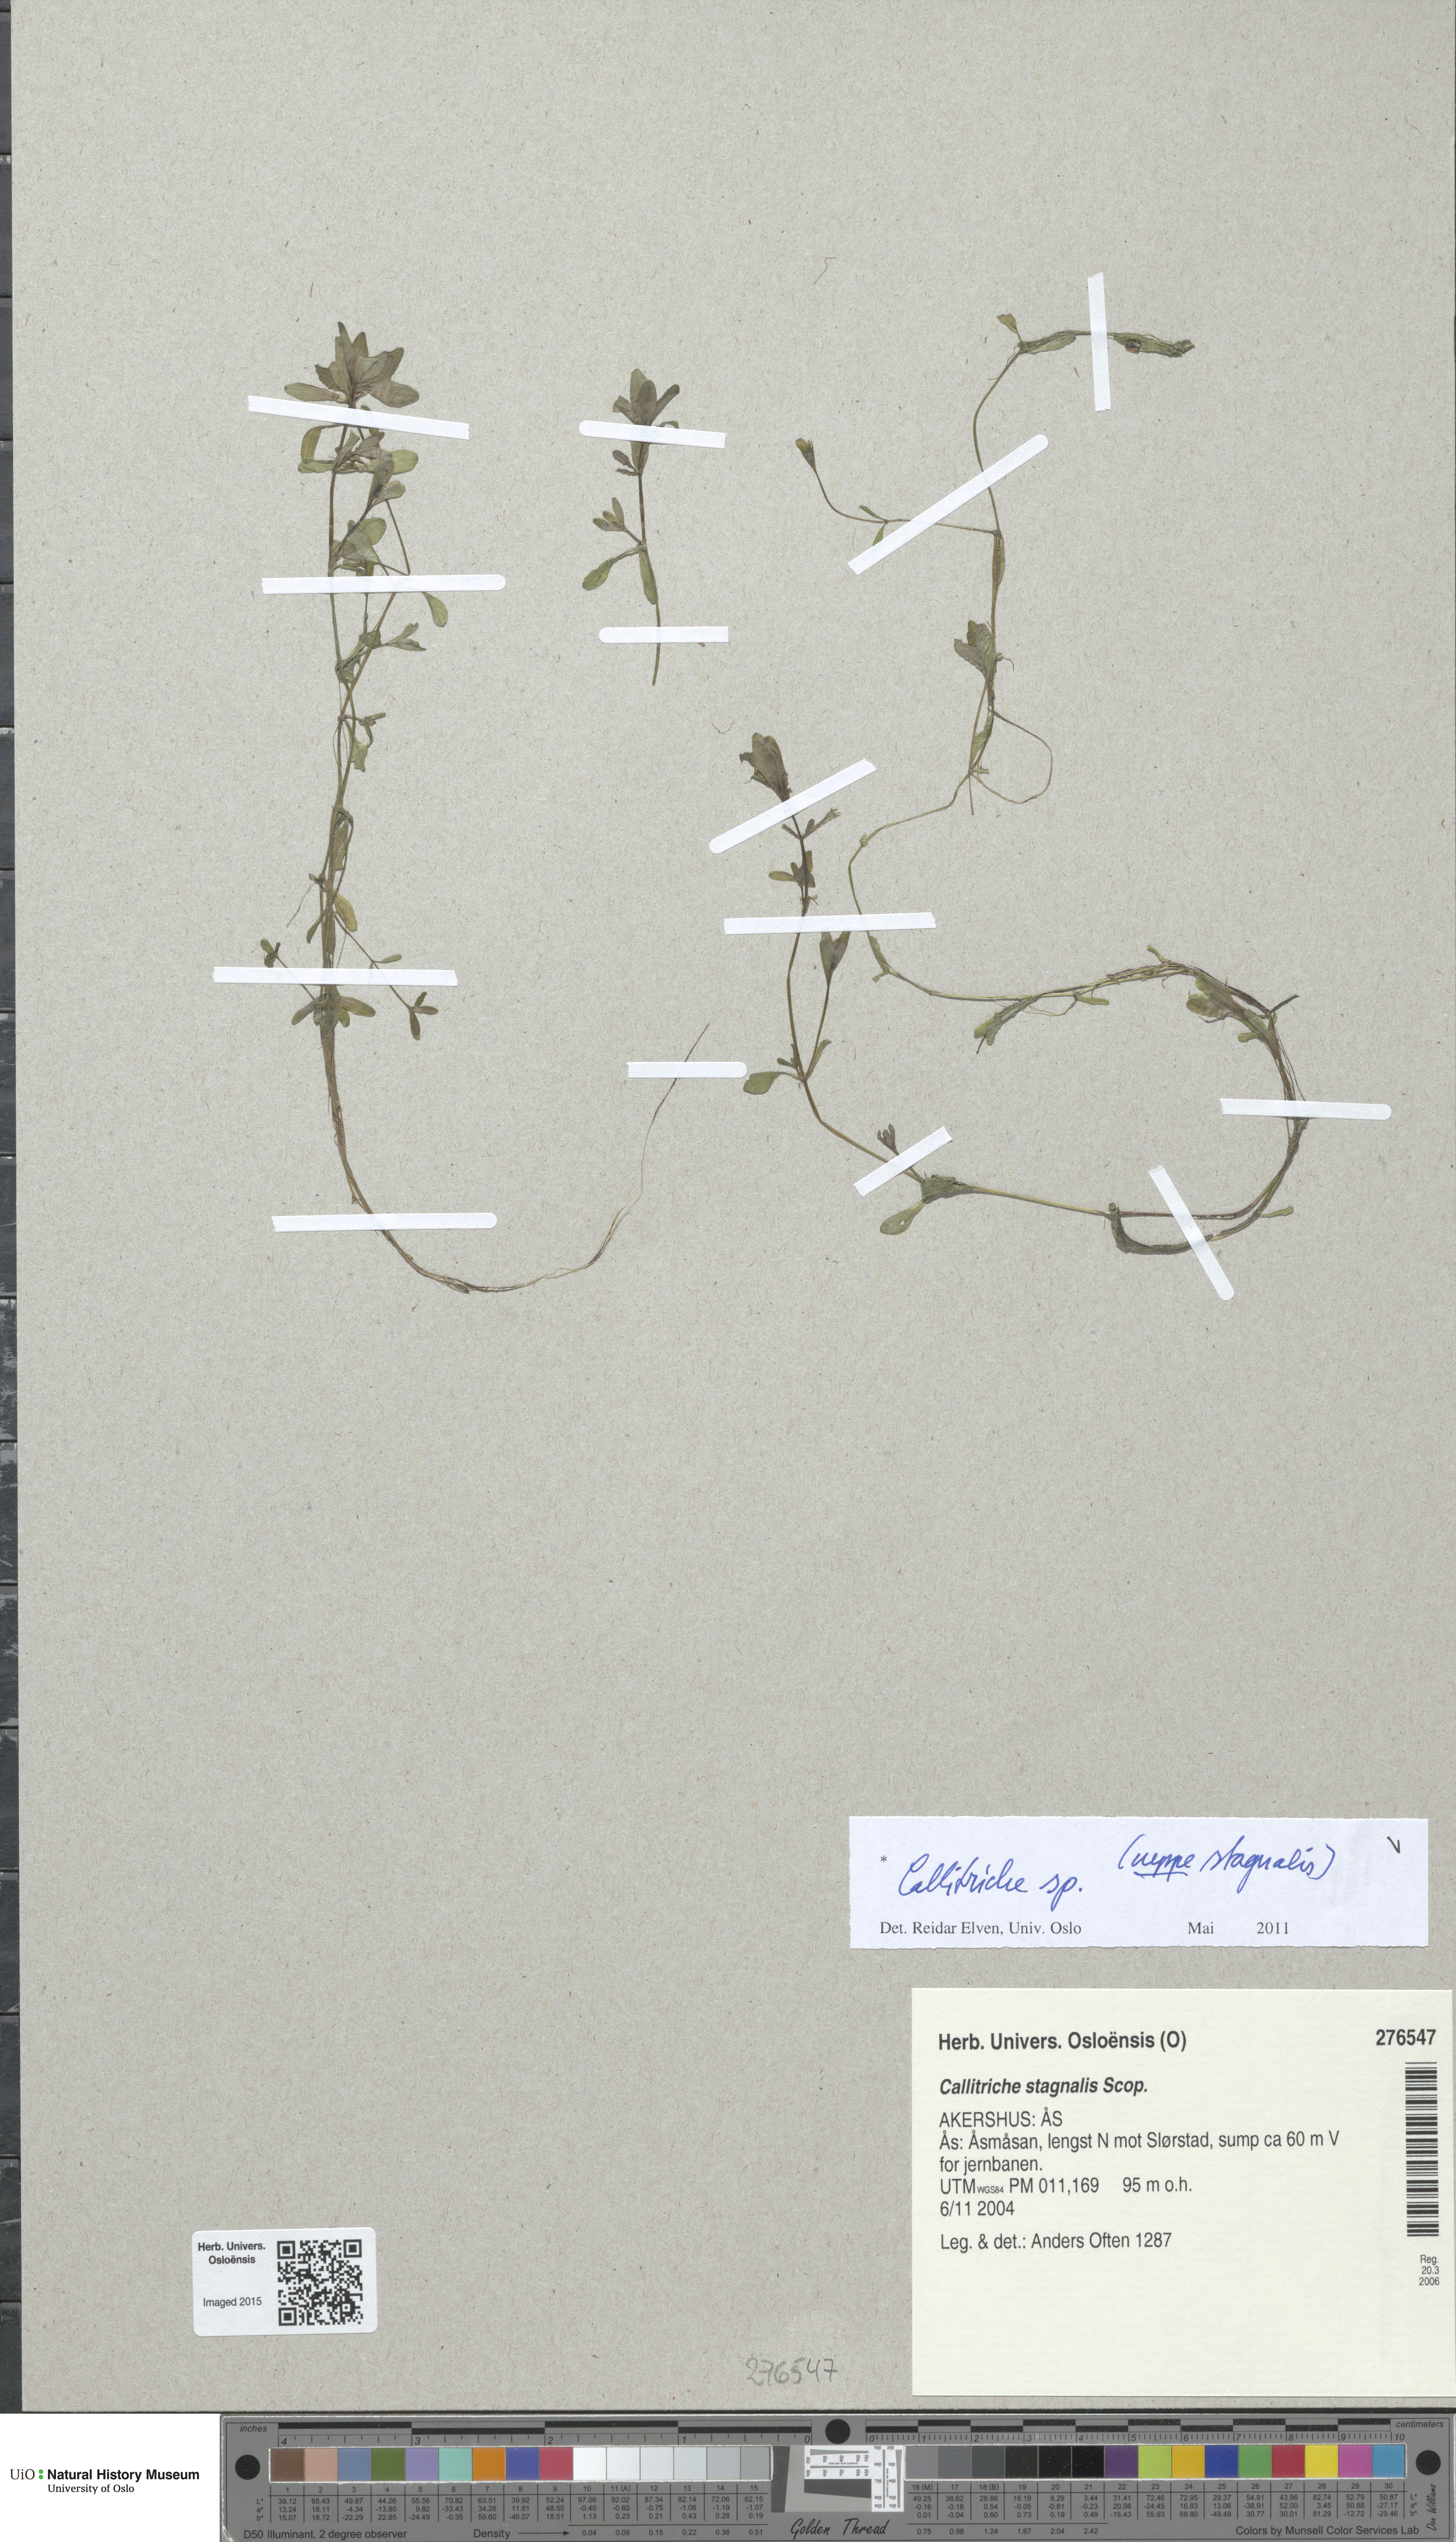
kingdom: Plantae
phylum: Tracheophyta
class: Magnoliopsida
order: Lamiales
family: Plantaginaceae
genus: Callitriche
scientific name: Callitriche
